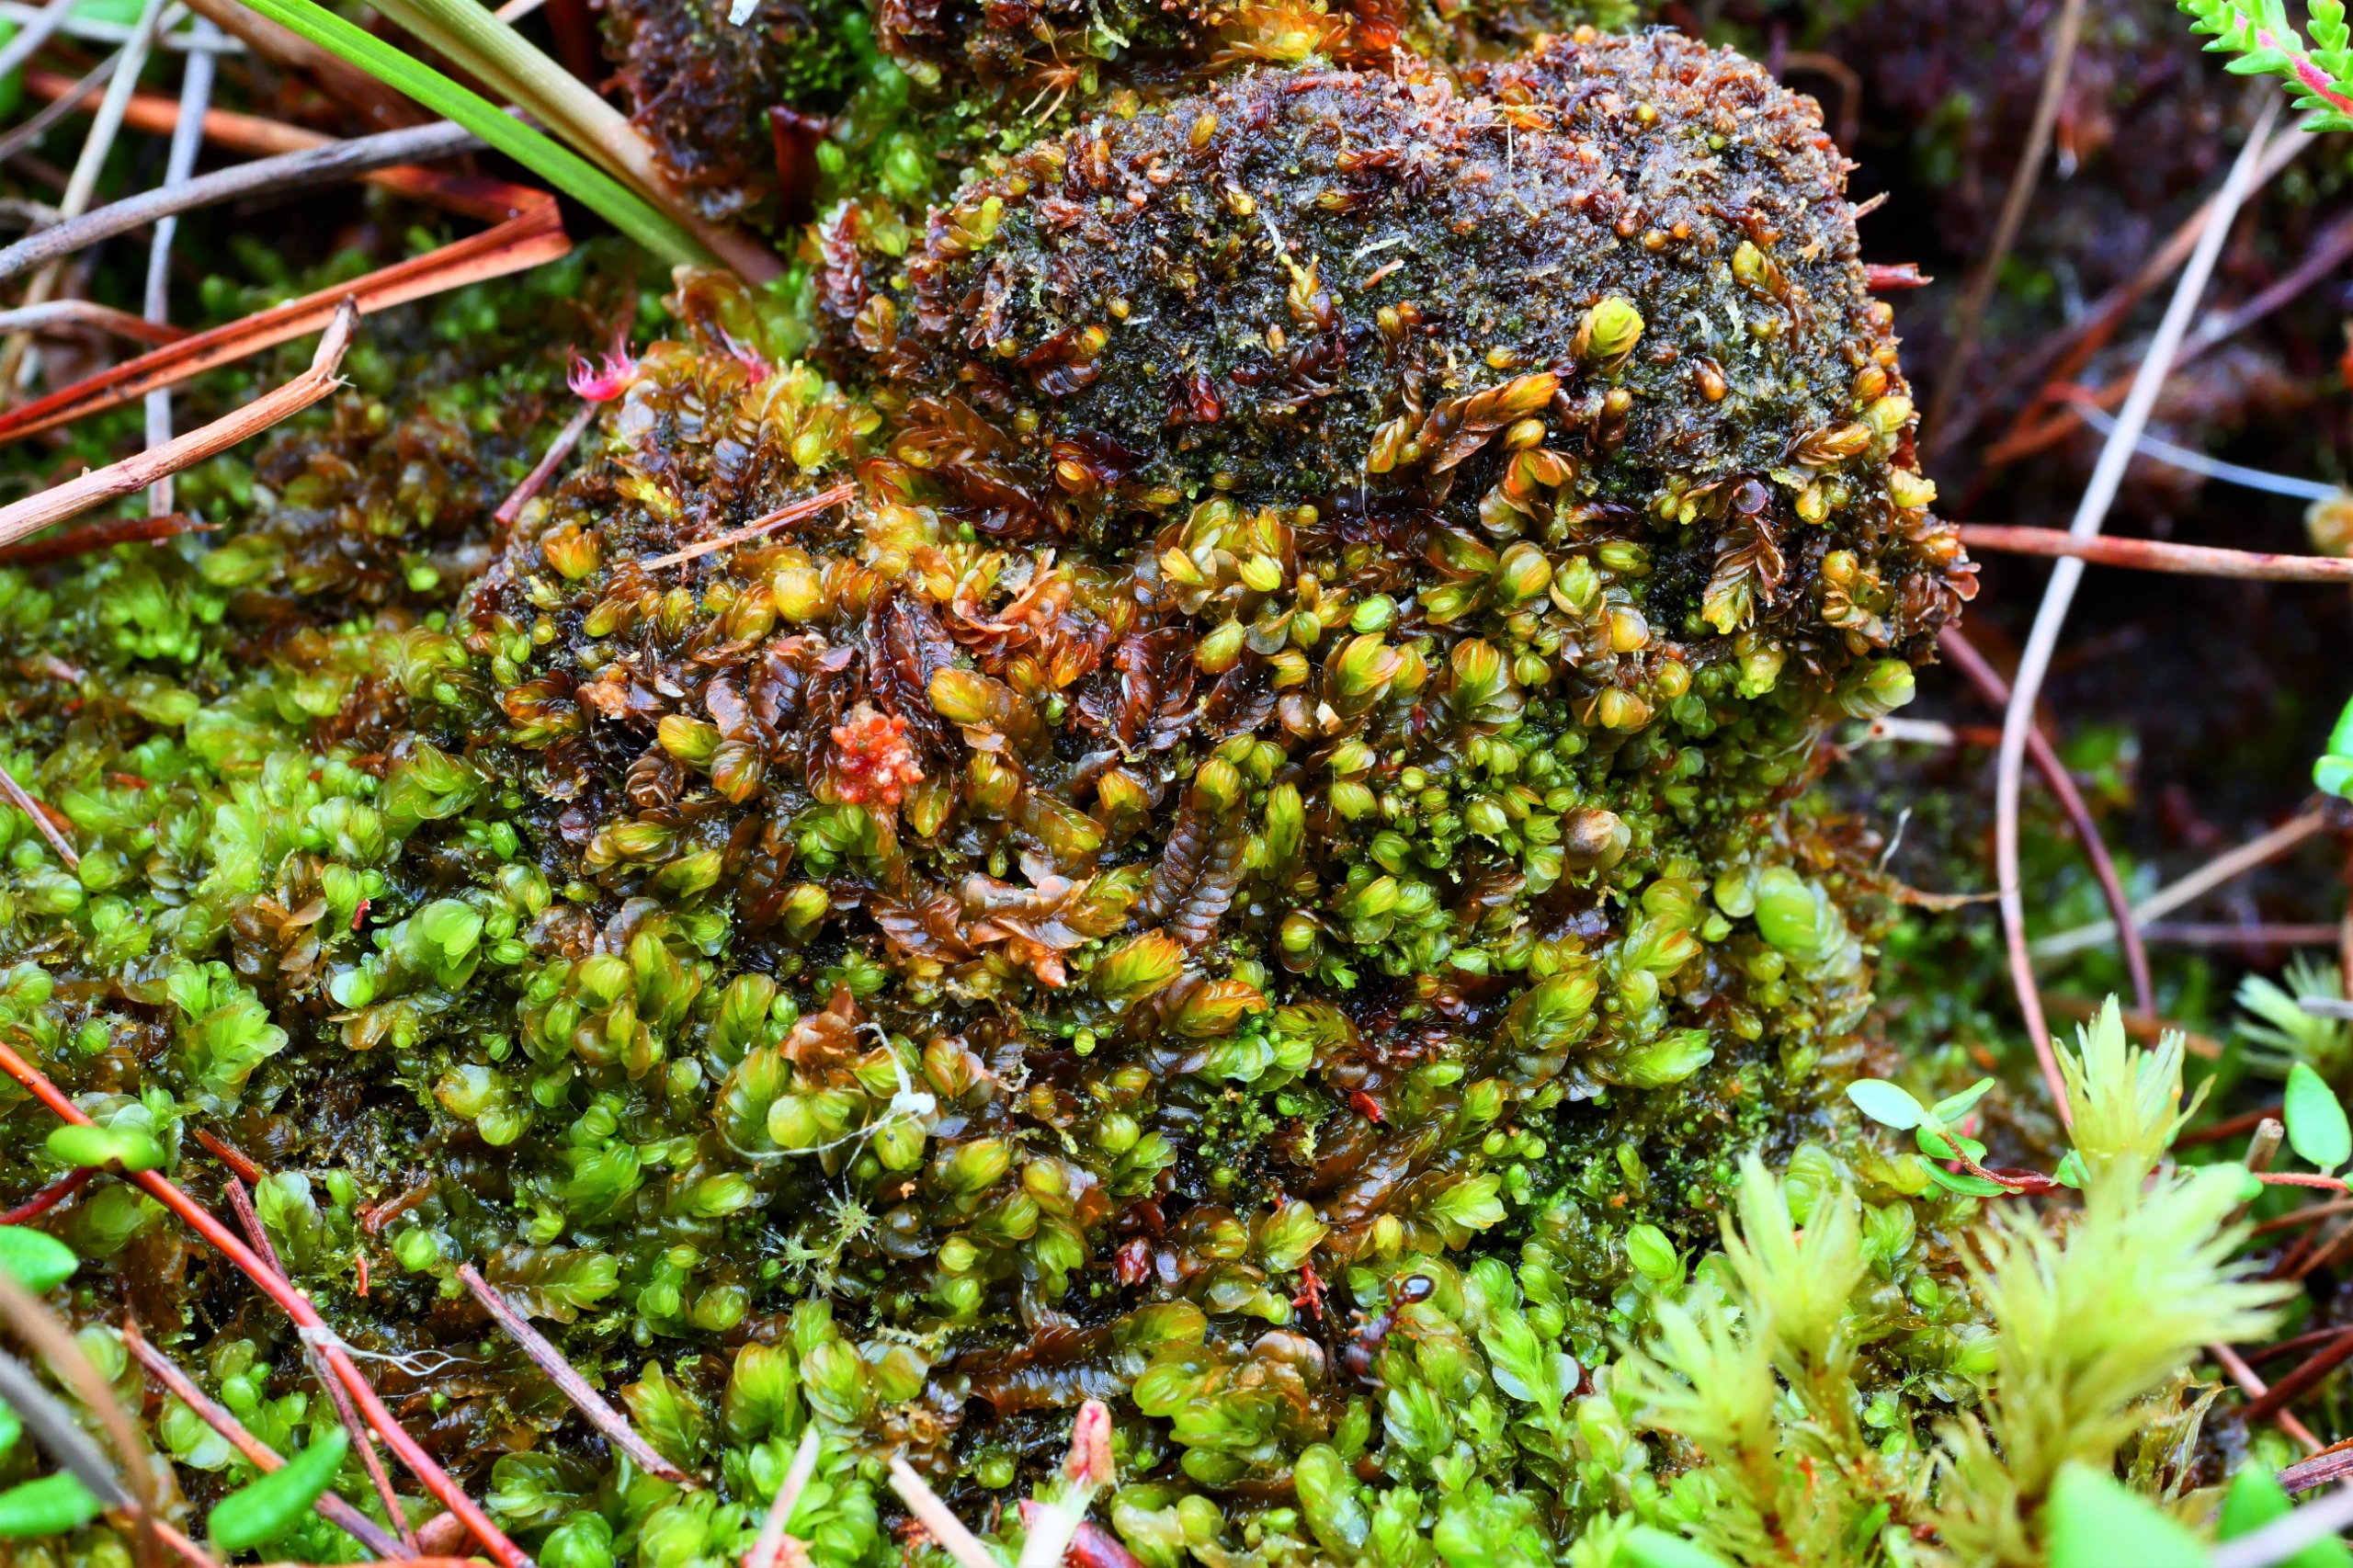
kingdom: Plantae
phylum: Marchantiophyta
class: Jungermanniopsida
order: Jungermanniales
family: Myliaceae
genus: Mylia
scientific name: Mylia anomala
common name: Mose-fladmund
